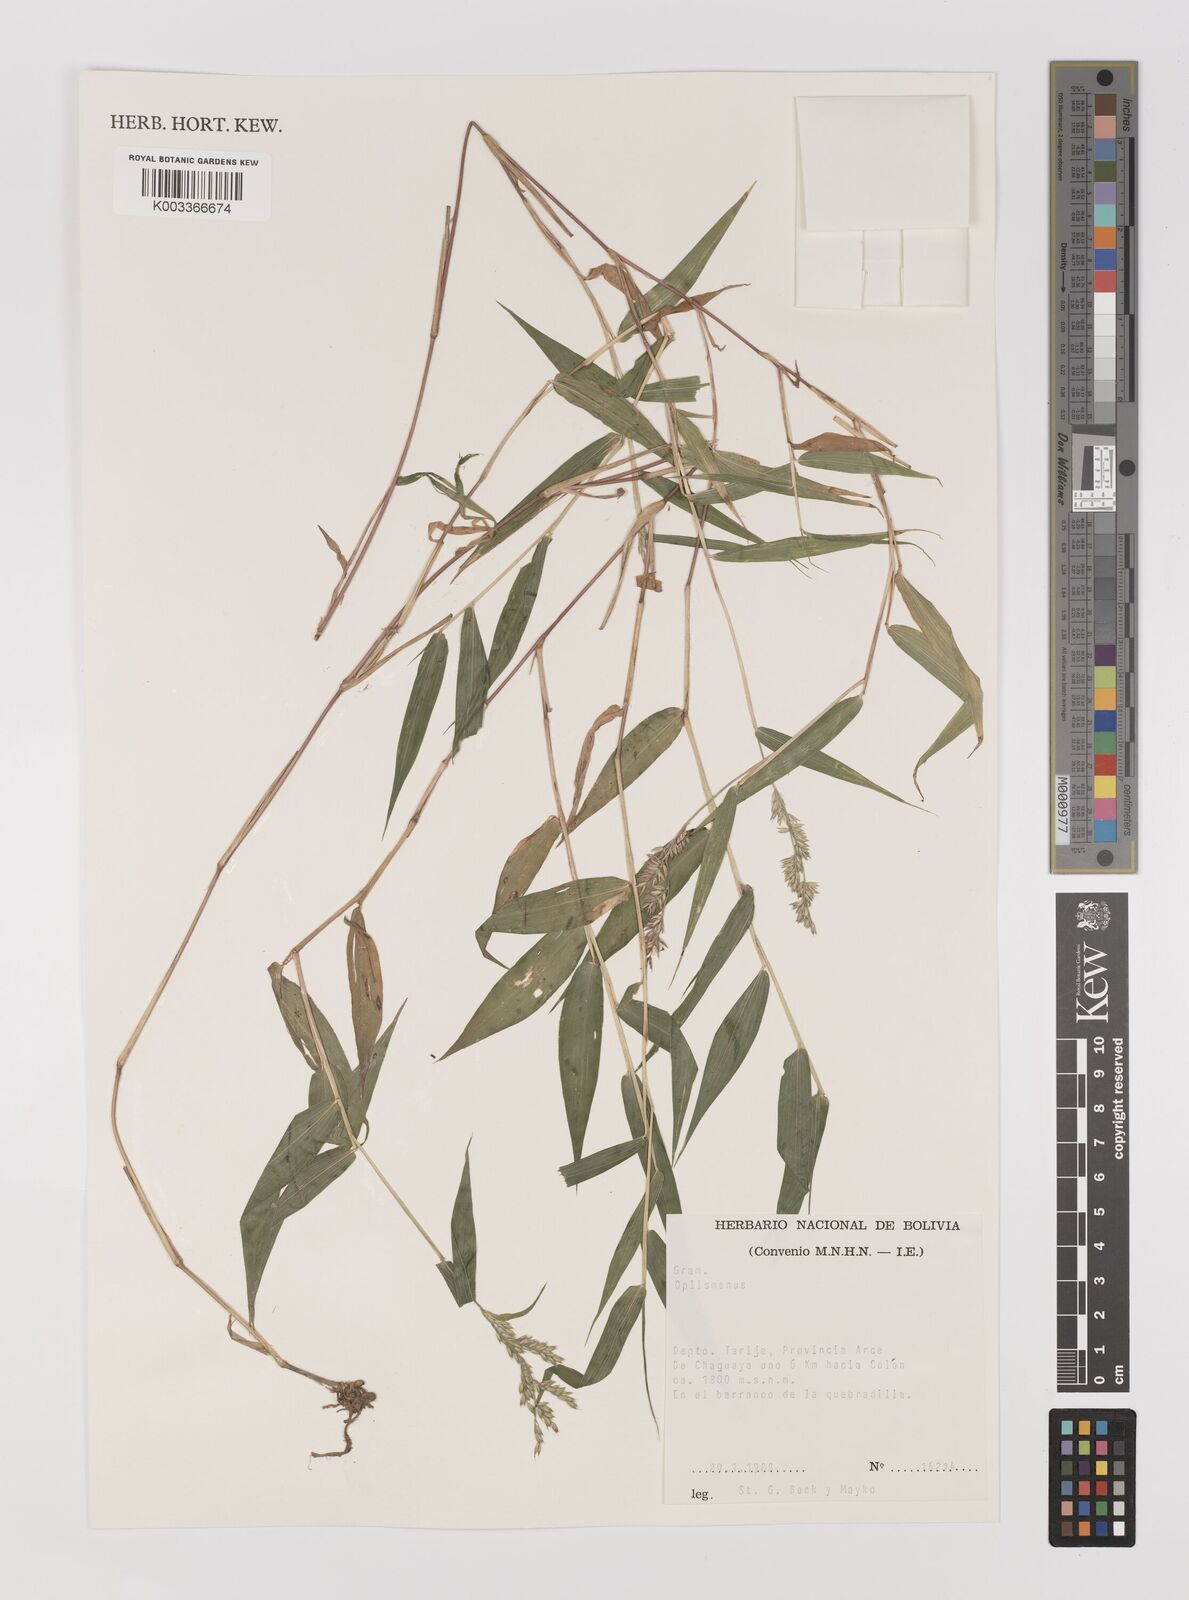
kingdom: Plantae
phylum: Tracheophyta
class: Liliopsida
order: Poales
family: Poaceae
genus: Oedochloa
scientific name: Oedochloa minarum
